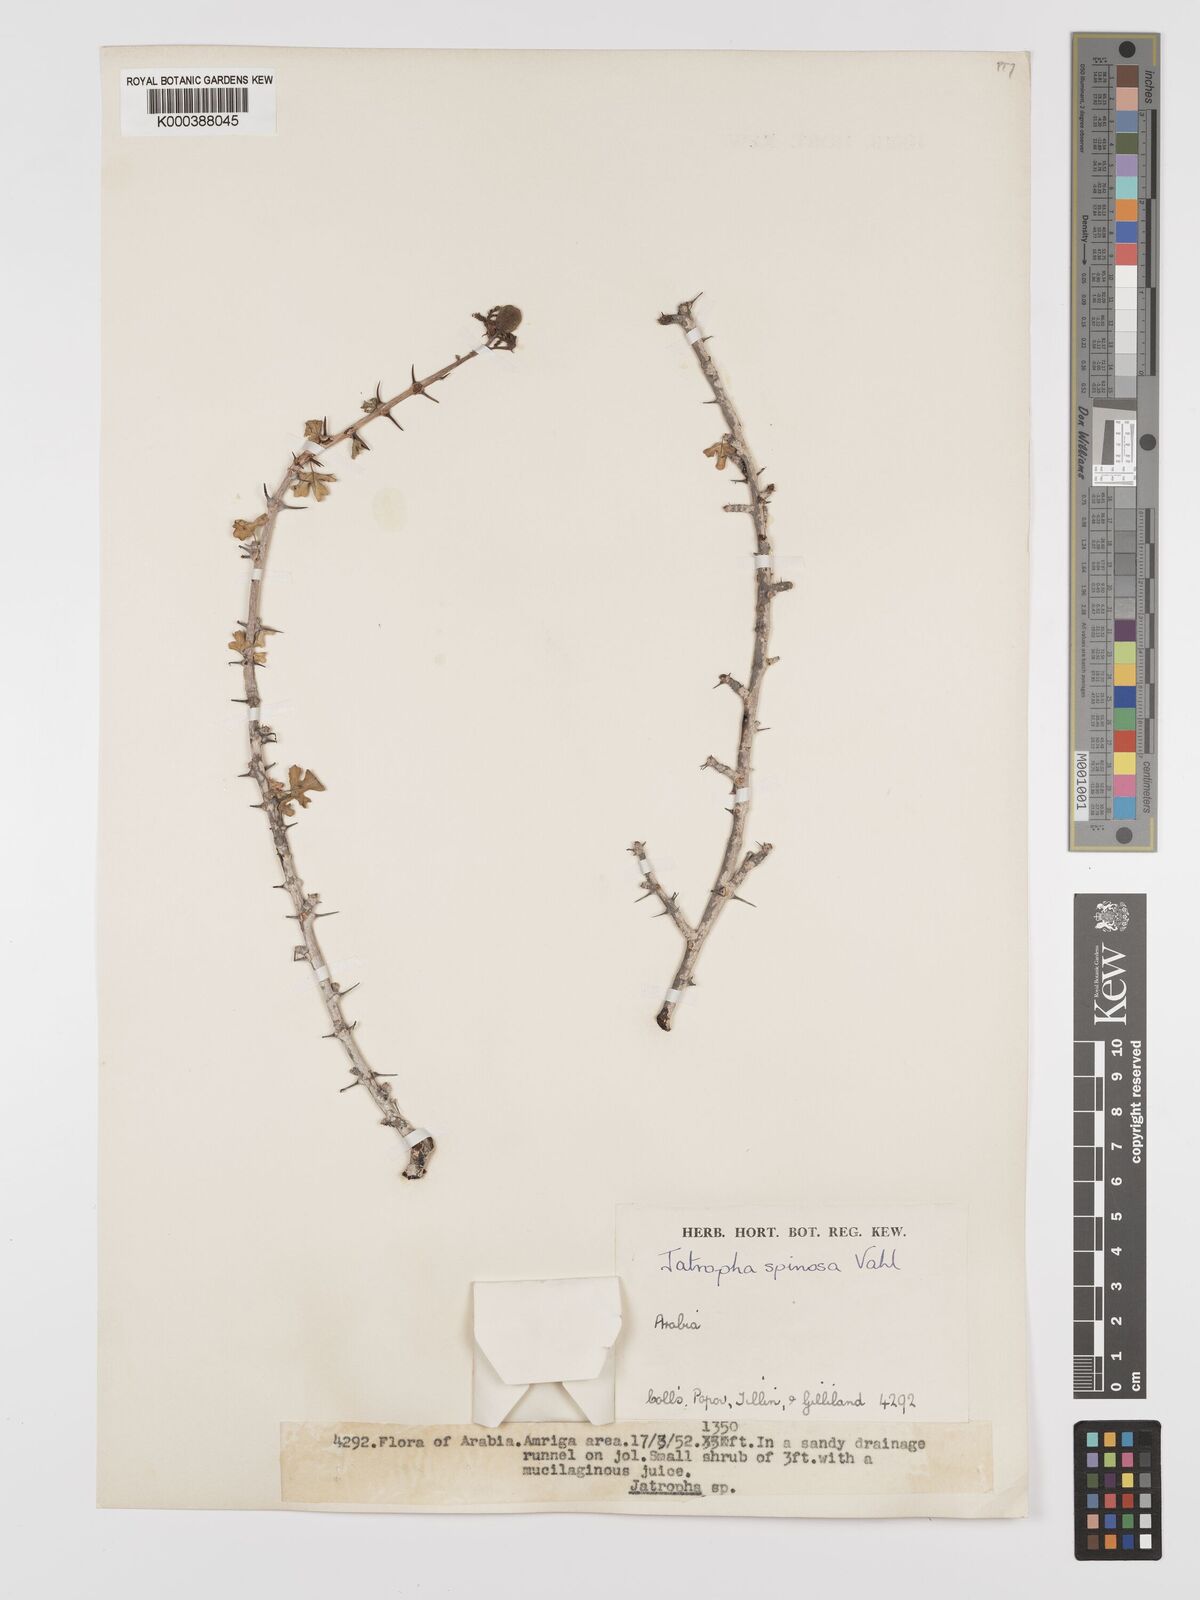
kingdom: Plantae
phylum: Tracheophyta
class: Magnoliopsida
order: Malpighiales
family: Euphorbiaceae
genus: Jatropha
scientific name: Jatropha spinosa
